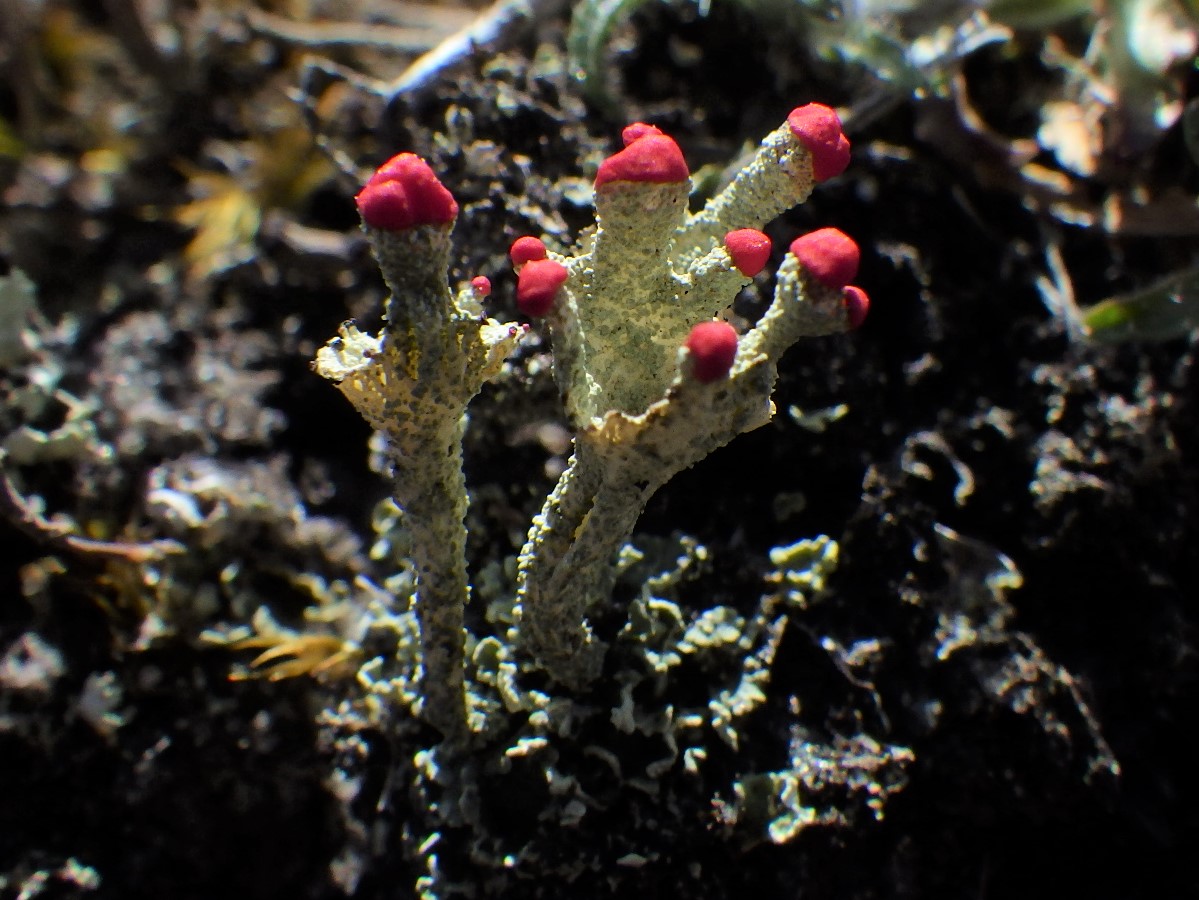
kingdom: Fungi
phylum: Ascomycota
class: Lecanoromycetes
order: Lecanorales
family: Cladoniaceae
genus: Cladonia
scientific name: Cladonia diversa
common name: rød bægerlav
